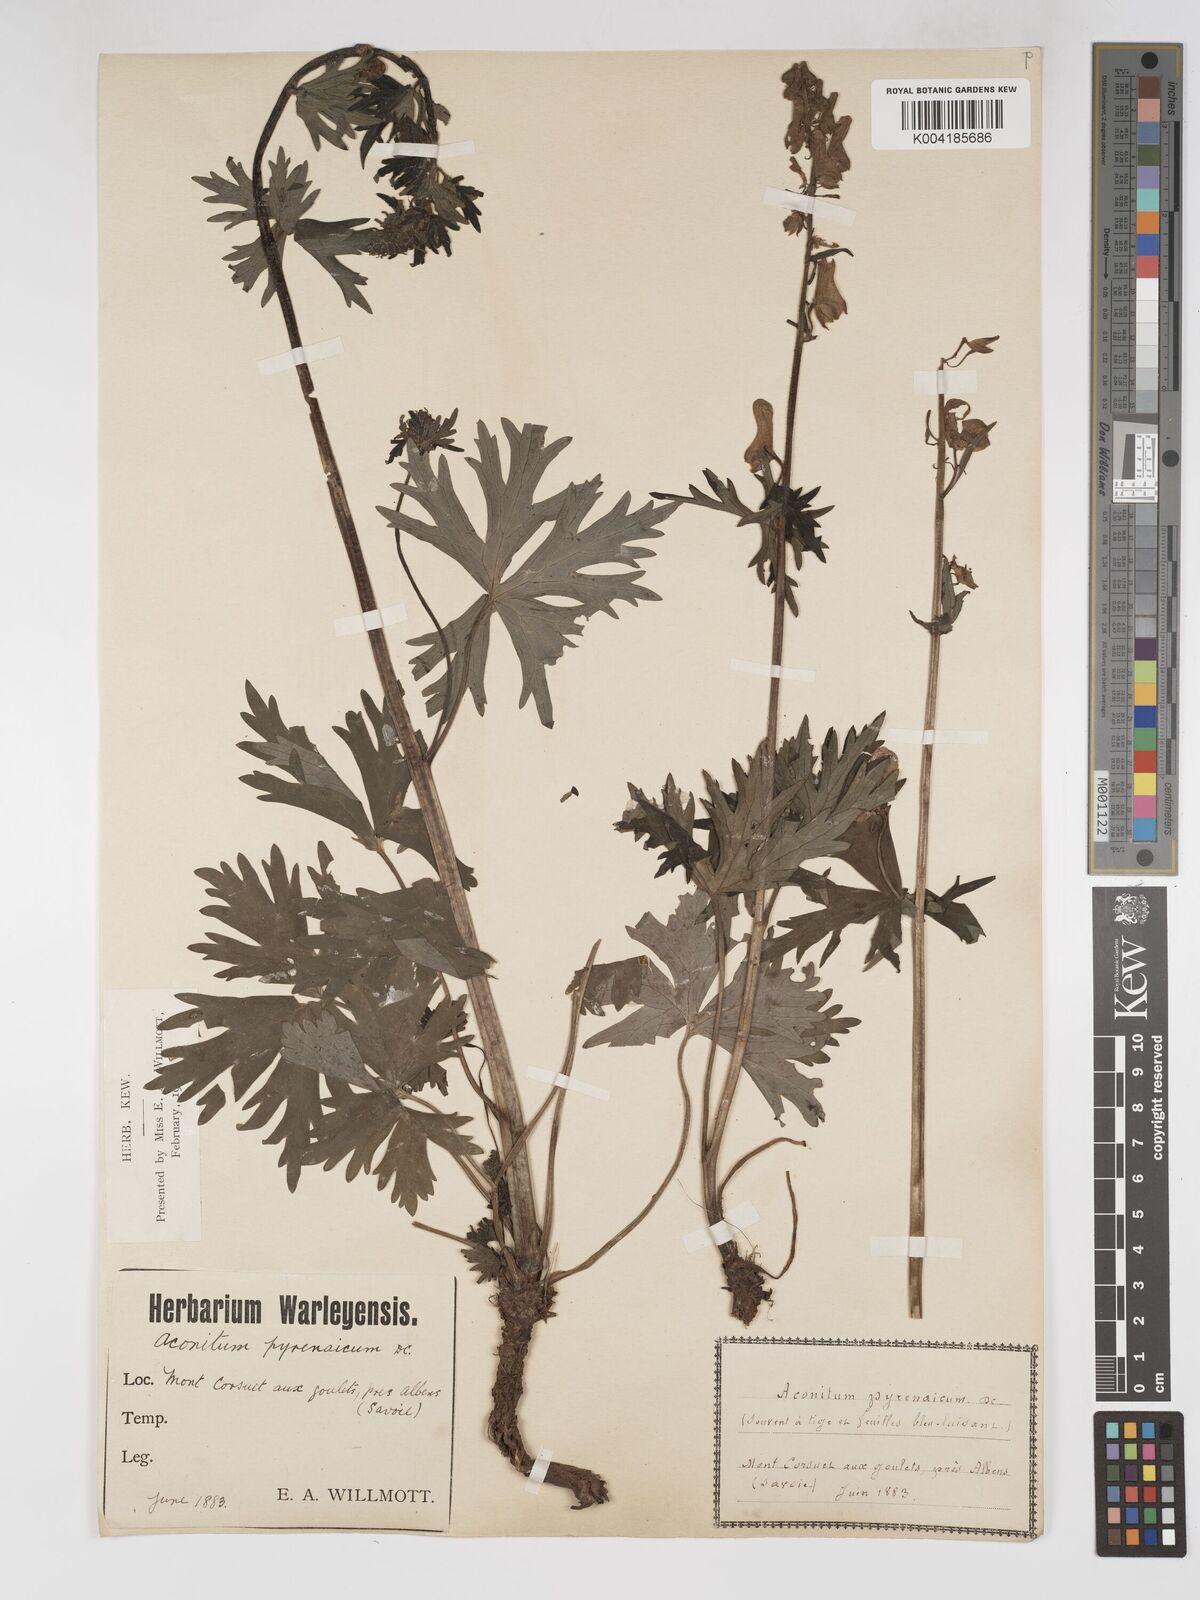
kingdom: Plantae
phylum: Tracheophyta
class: Magnoliopsida
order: Ranunculales
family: Ranunculaceae
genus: Aconitum
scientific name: Aconitum lycoctonum
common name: Wolf's-bane
